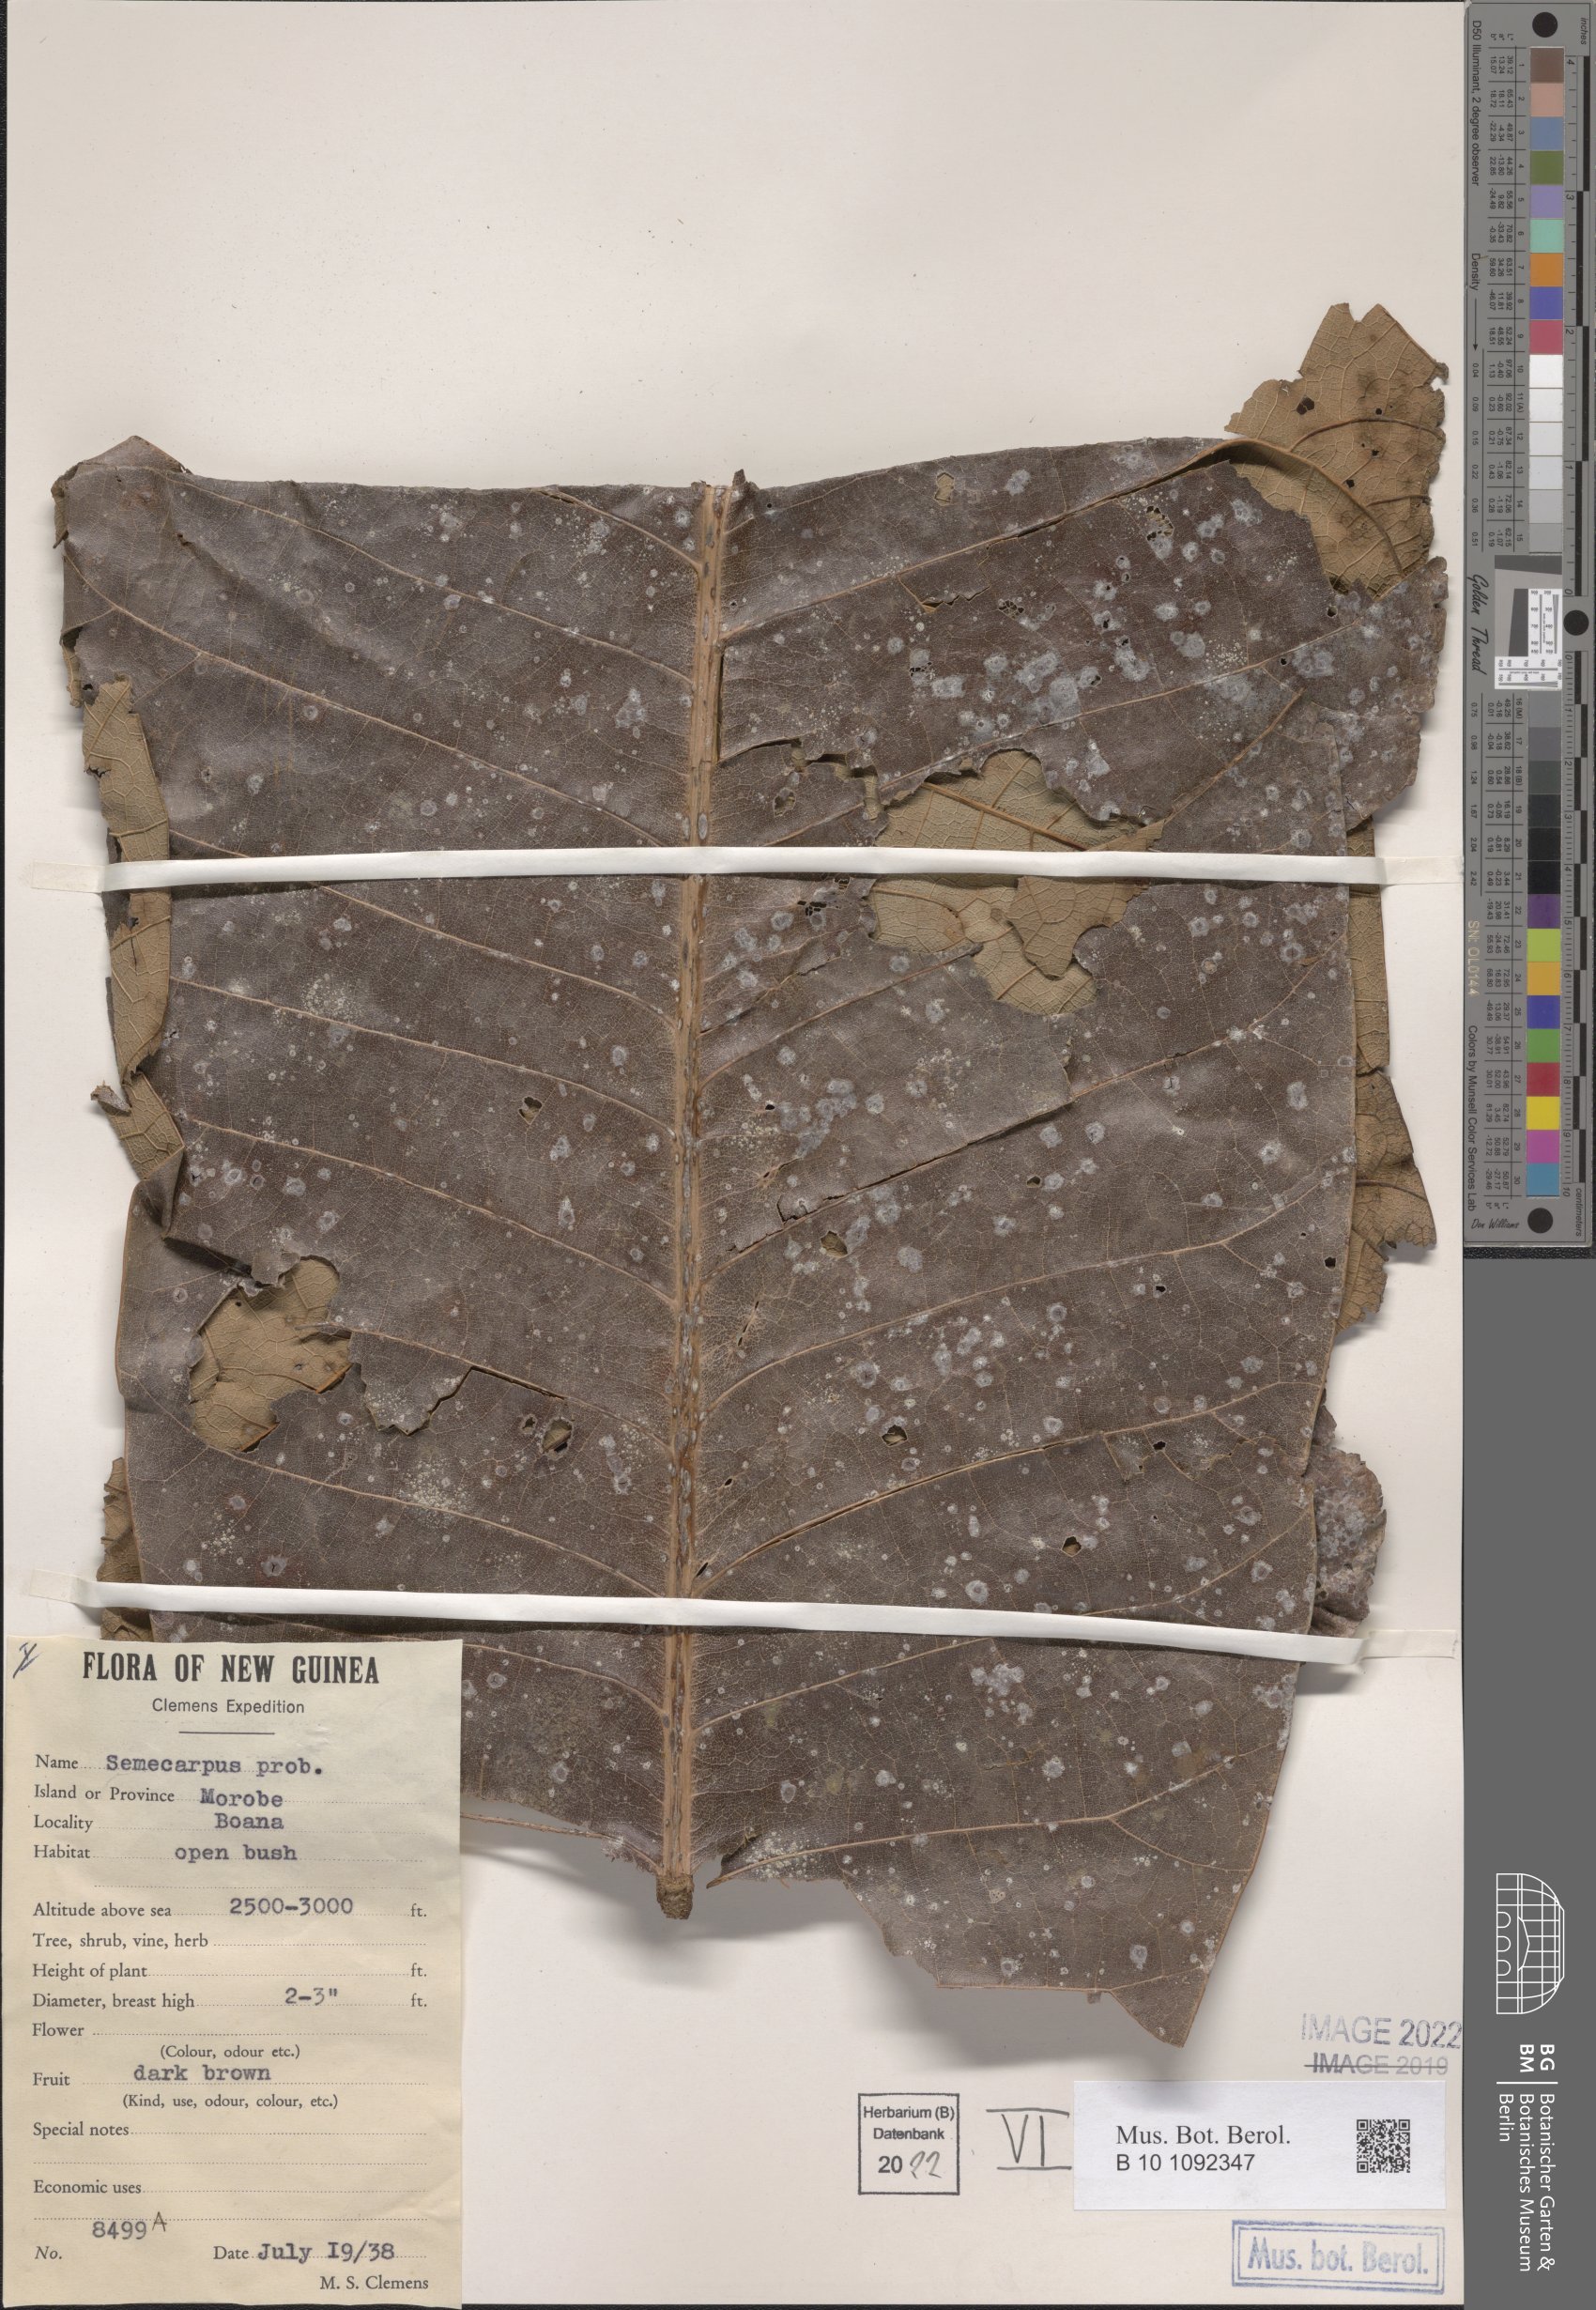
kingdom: Plantae
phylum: Tracheophyta
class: Magnoliopsida
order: Sapindales
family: Anacardiaceae
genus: Semecarpus
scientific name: Semecarpus
